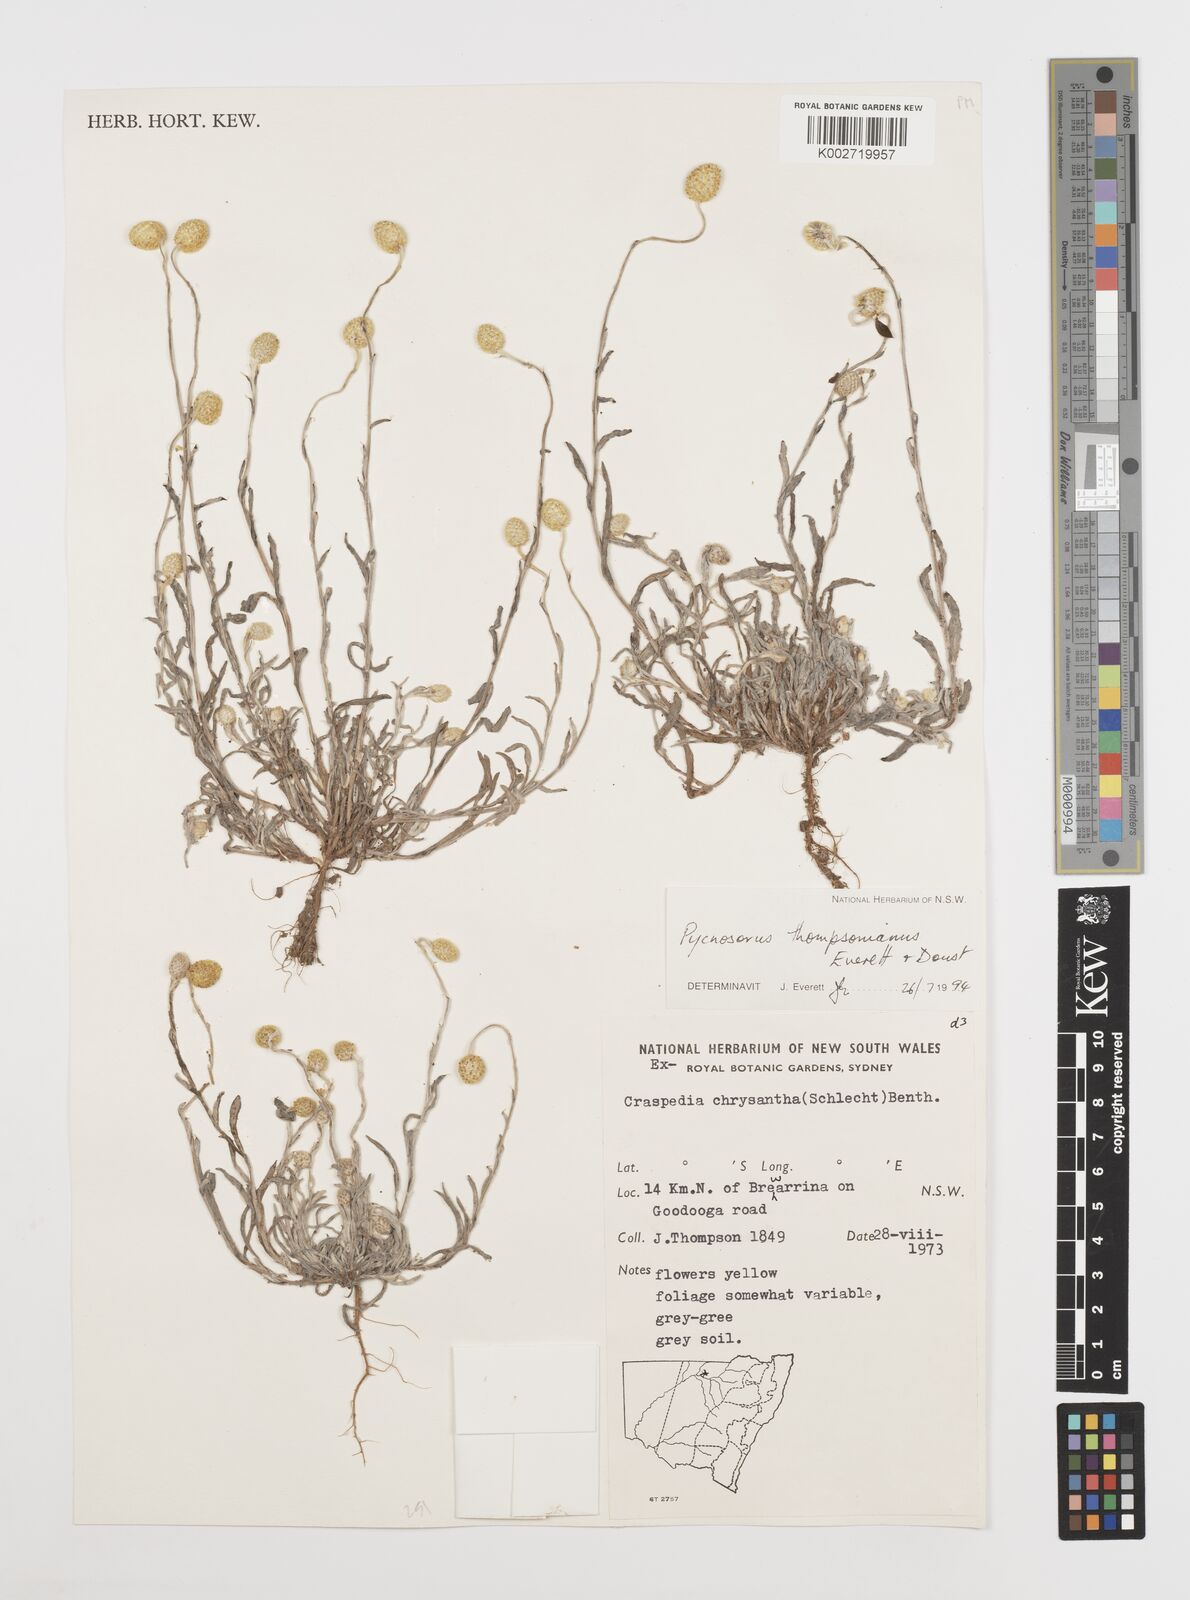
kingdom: Plantae
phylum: Tracheophyta
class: Magnoliopsida
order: Asterales
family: Asteraceae
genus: Pycnosorus
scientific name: Pycnosorus thompsonianus
